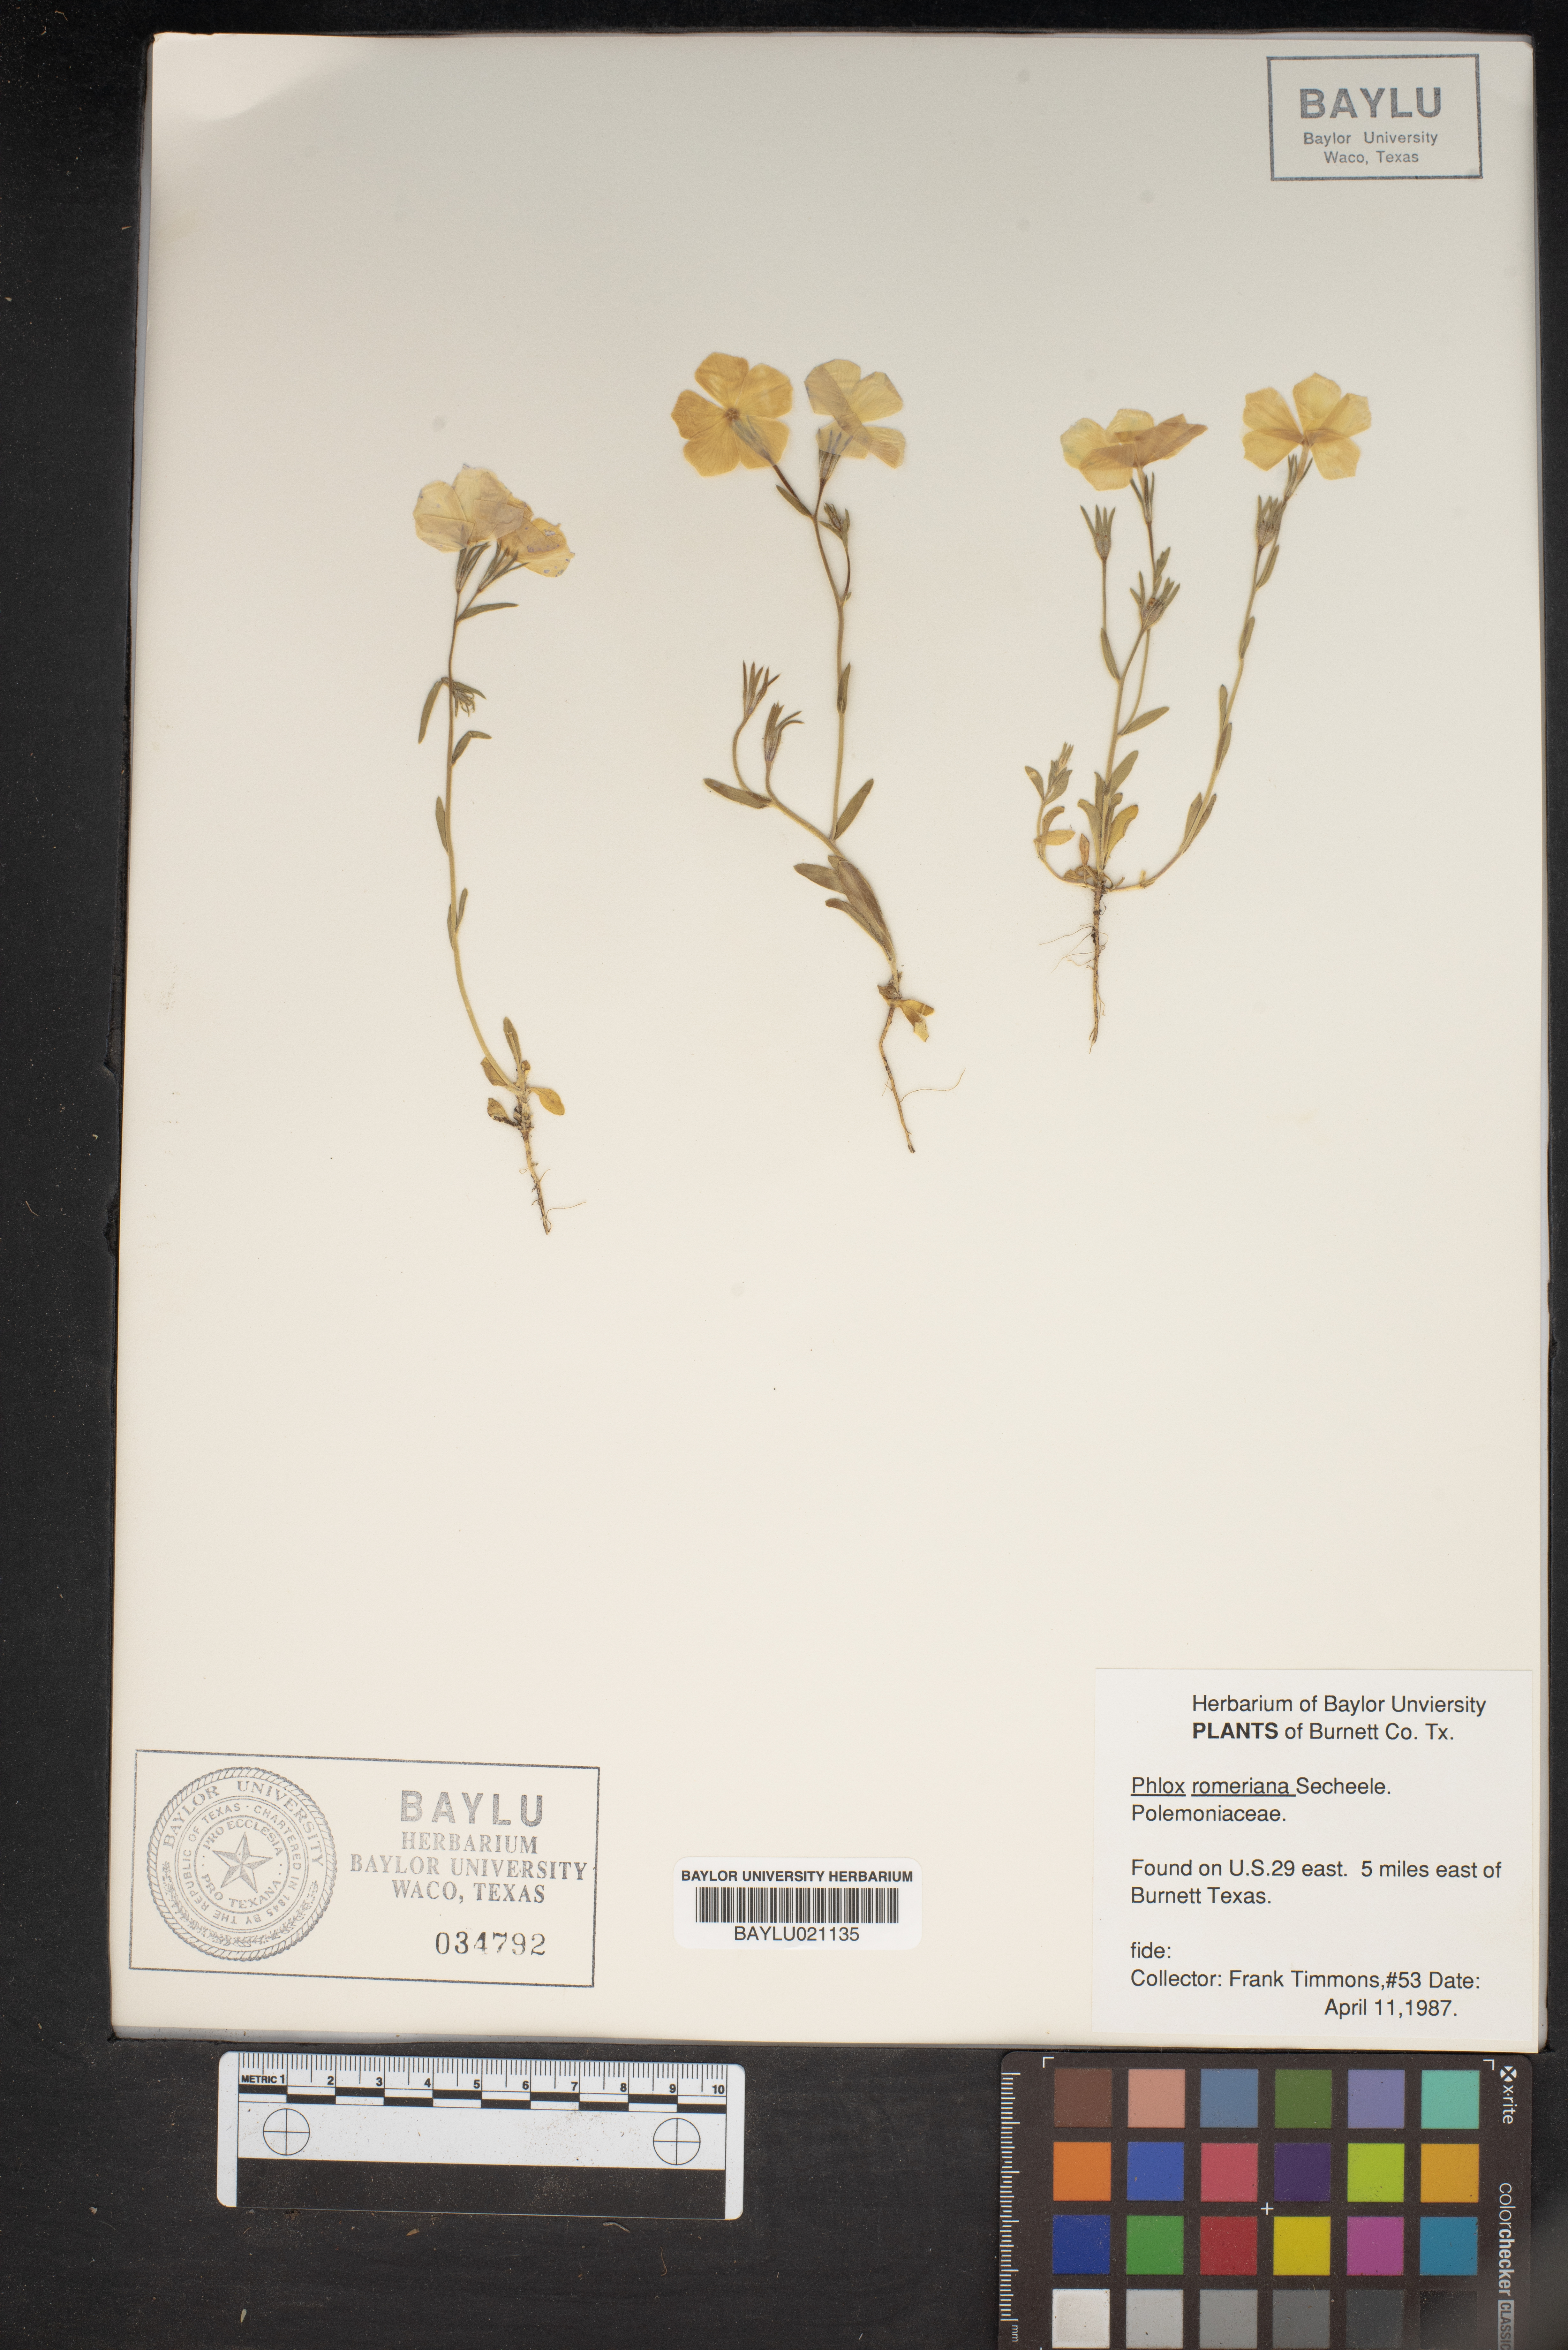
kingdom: Plantae
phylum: Tracheophyta
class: Magnoliopsida
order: Ericales
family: Polemoniaceae
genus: Phlox
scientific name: Phlox roemeriana
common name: Roemer's phlox
